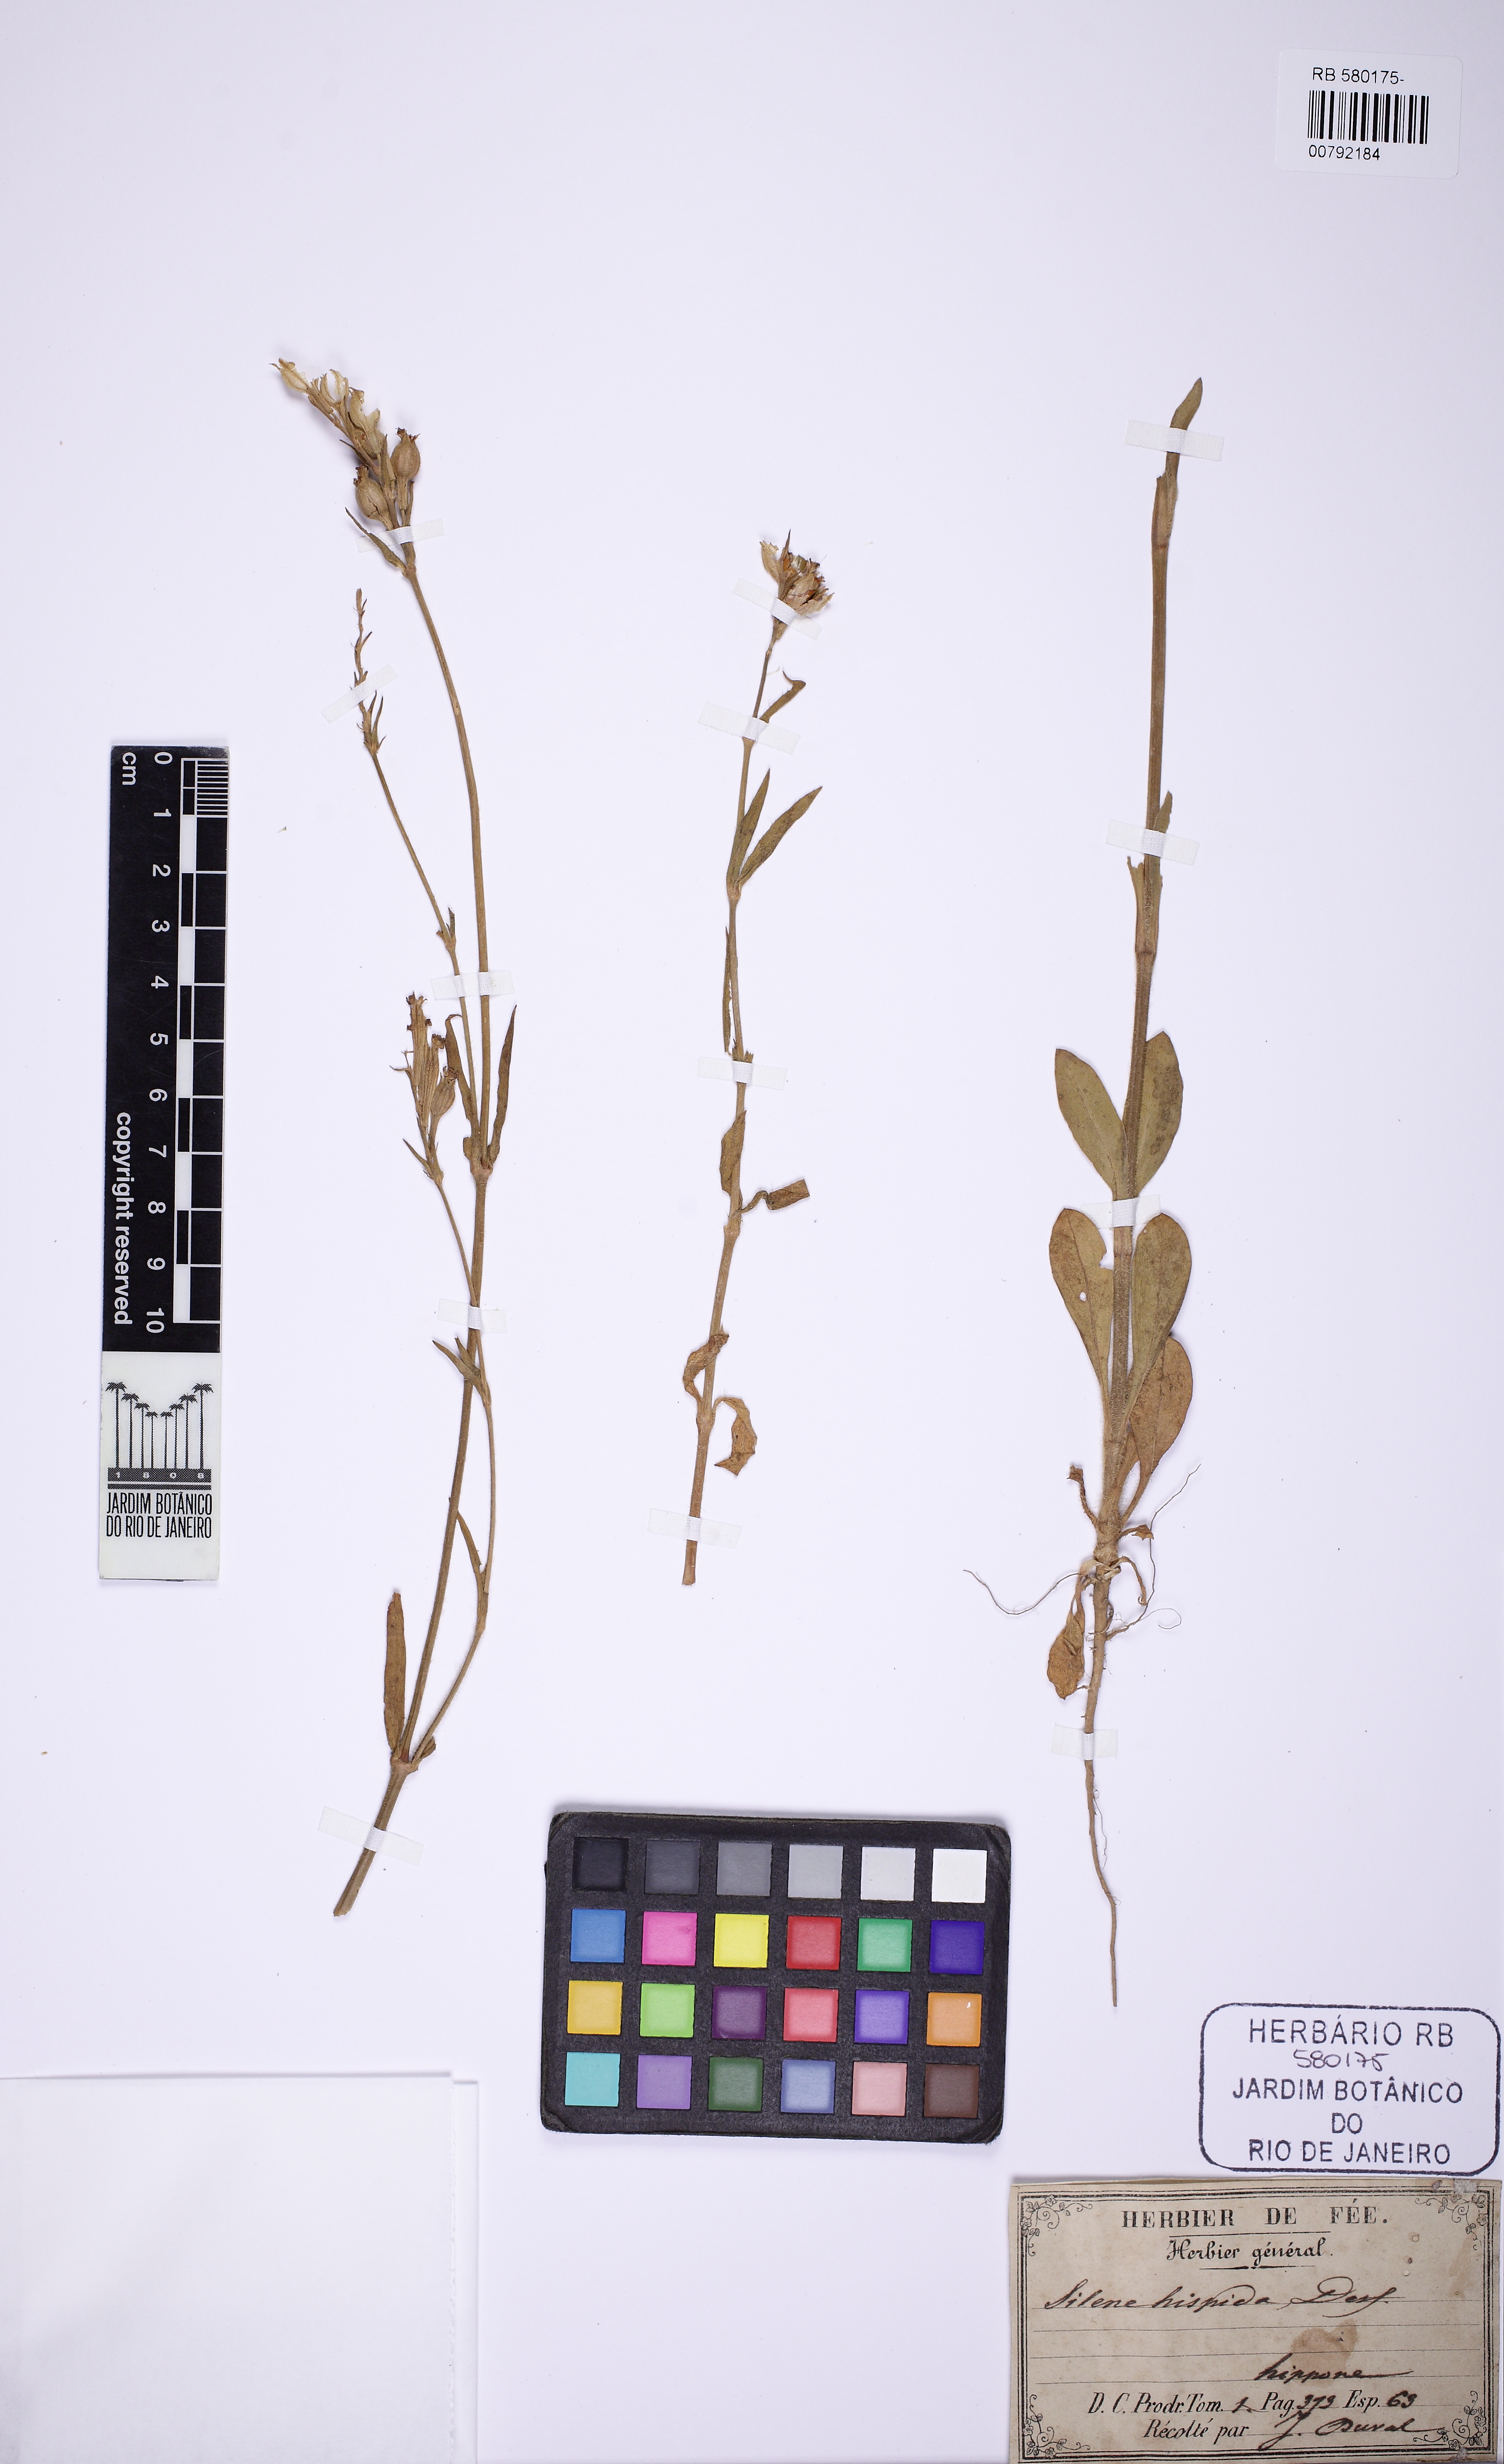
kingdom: Plantae
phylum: Tracheophyta
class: Magnoliopsida
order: Caryophyllales
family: Caryophyllaceae
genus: Silene
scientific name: Silene bellidifolia
